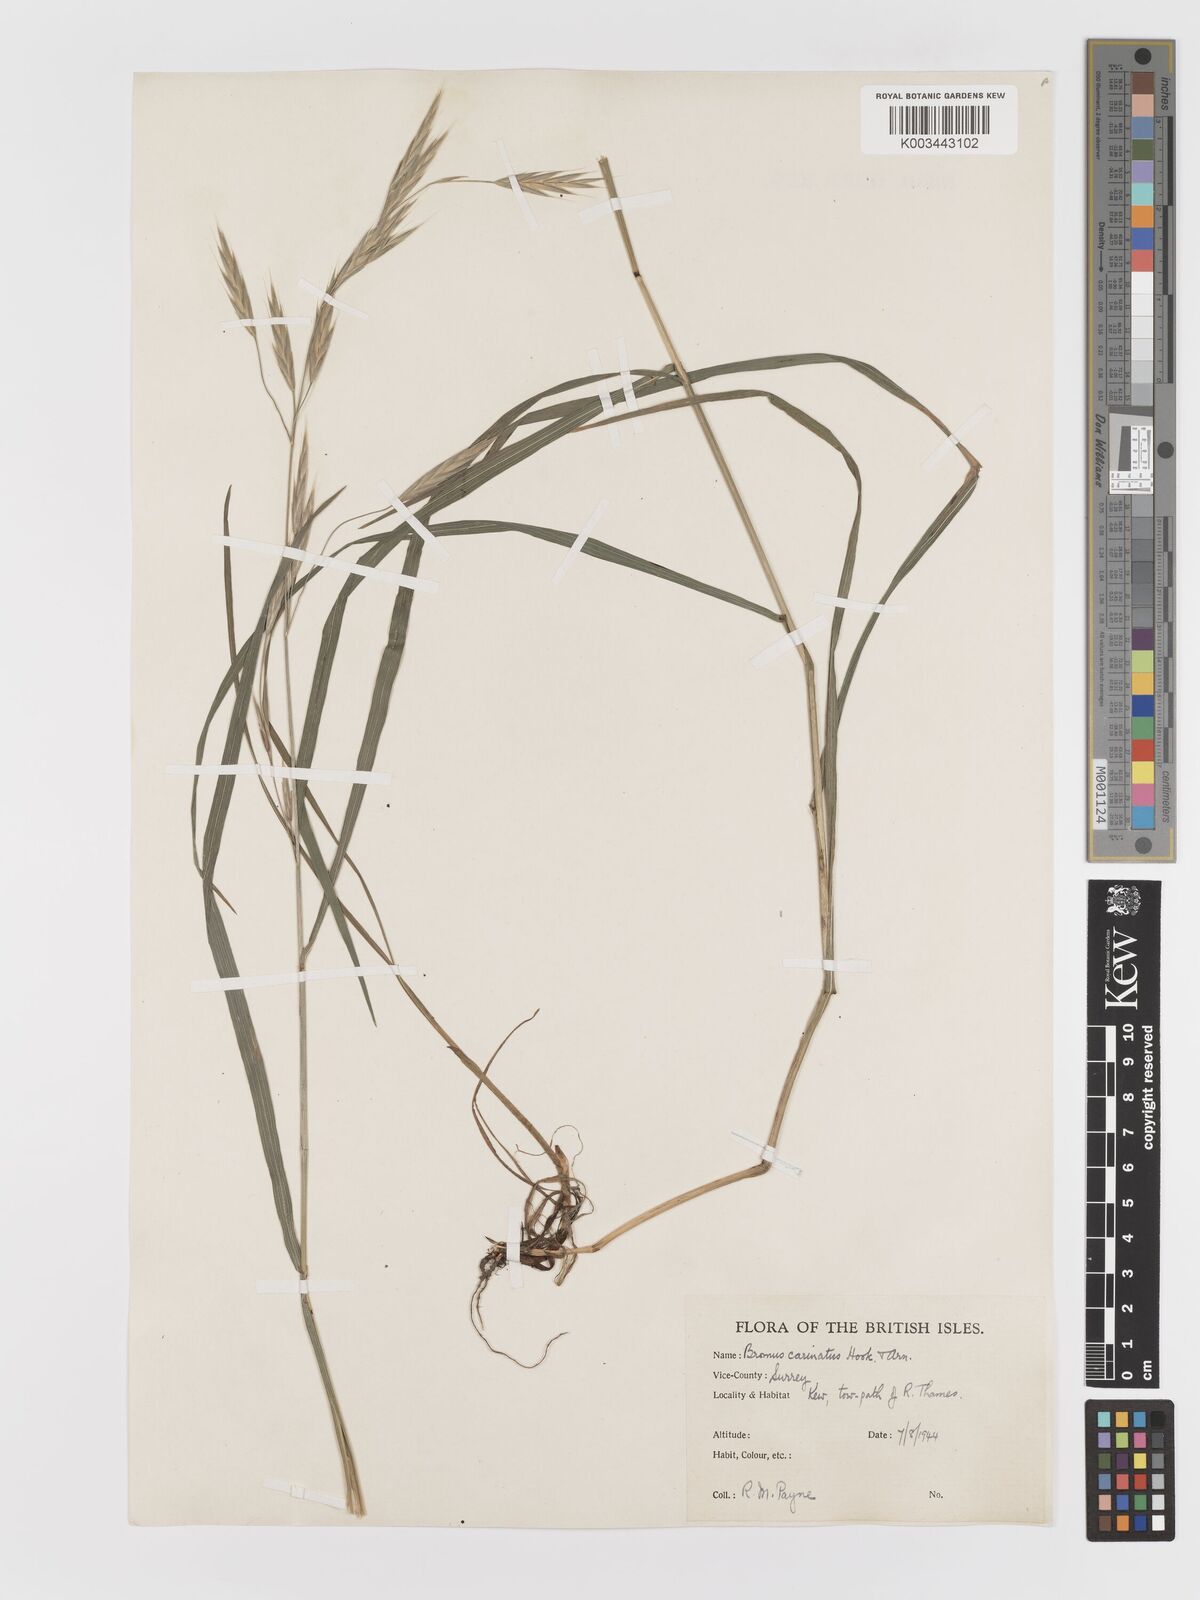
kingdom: Plantae
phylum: Tracheophyta
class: Liliopsida
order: Poales
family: Poaceae
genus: Bromus
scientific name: Bromus carinatus
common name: Mountain brome
